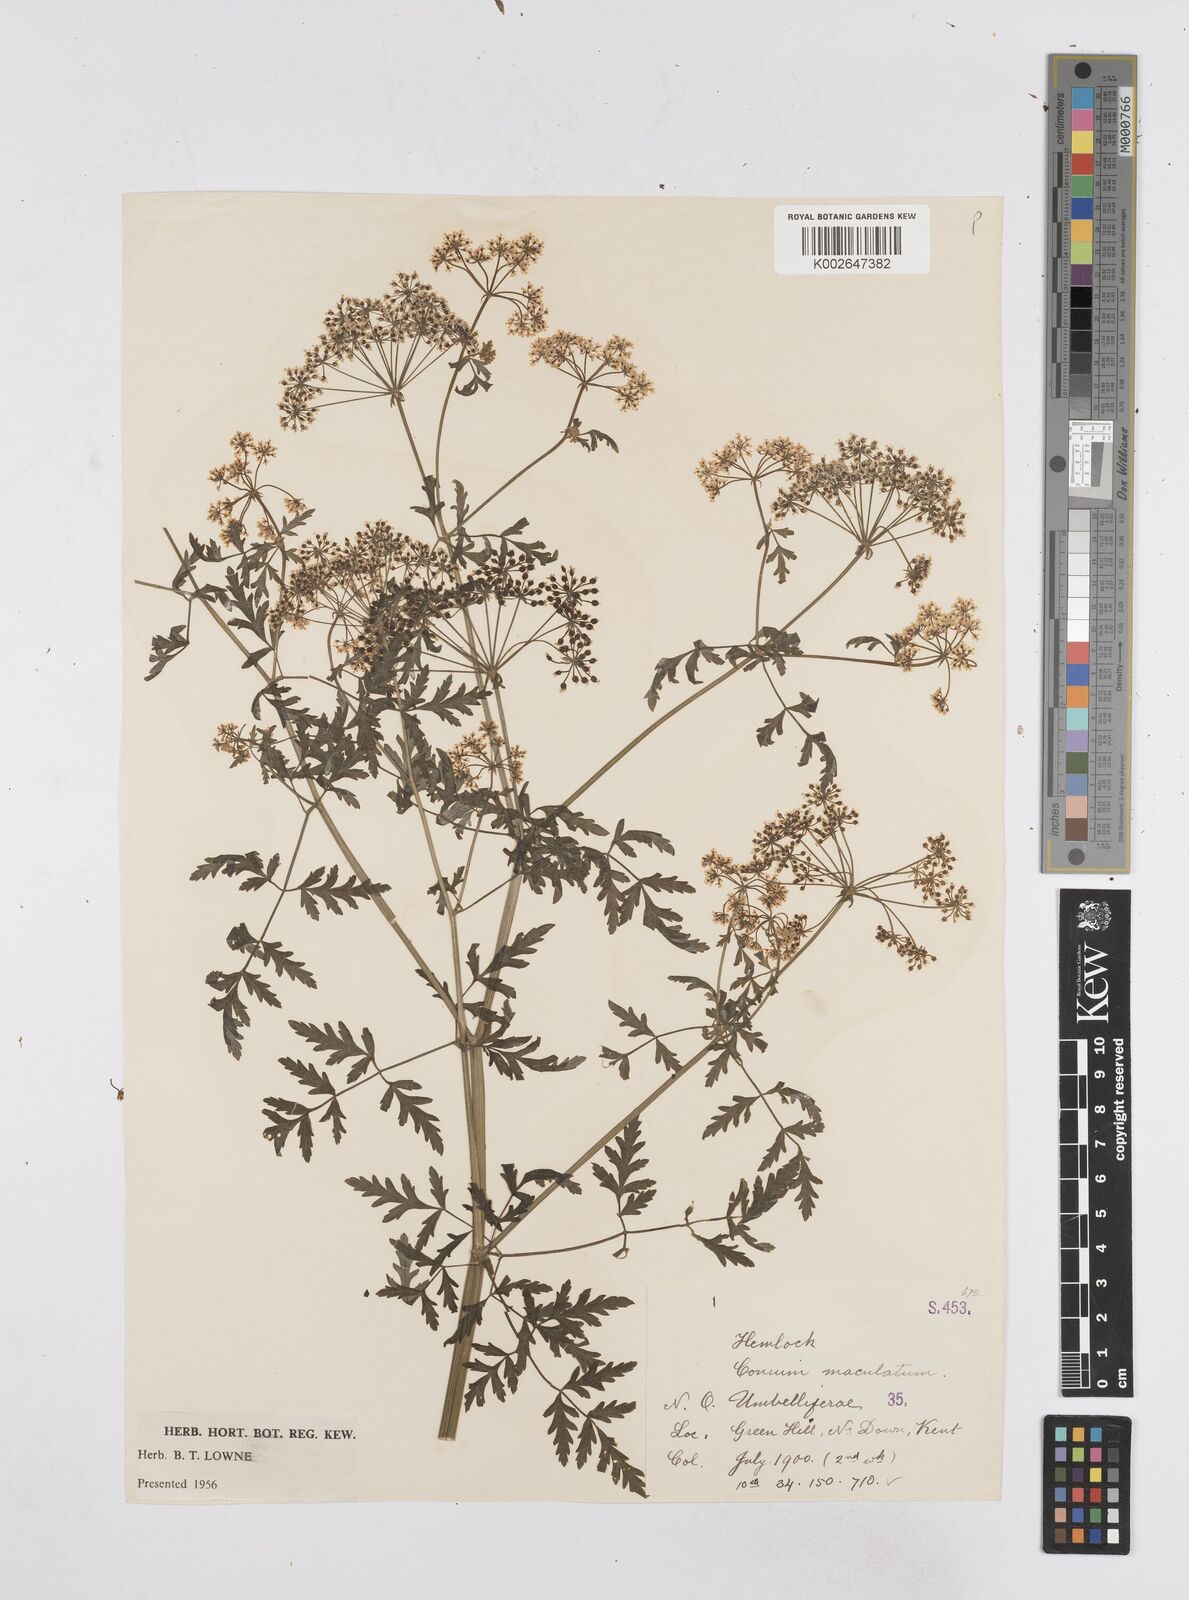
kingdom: Plantae
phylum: Tracheophyta
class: Magnoliopsida
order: Apiales
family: Apiaceae
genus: Conium
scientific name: Conium maculatum
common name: Hemlock
